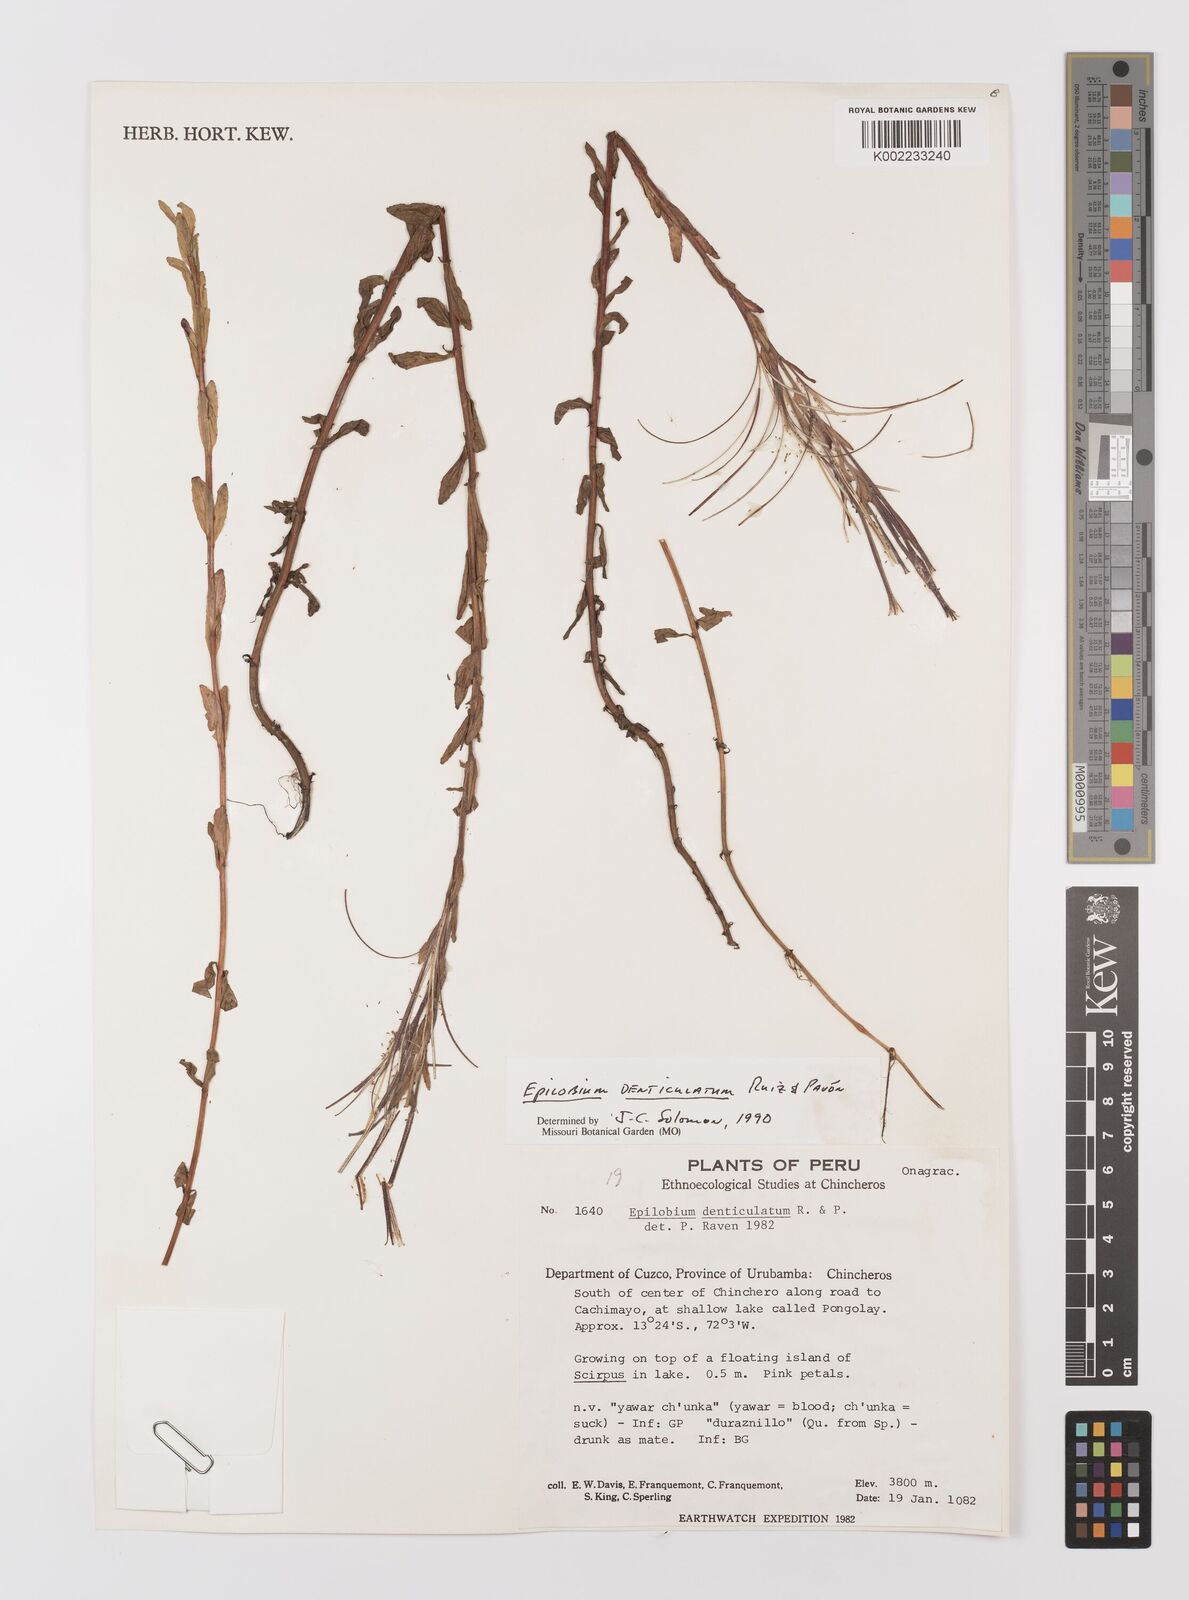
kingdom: Plantae
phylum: Tracheophyta
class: Magnoliopsida
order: Myrtales
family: Onagraceae
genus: Epilobium
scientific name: Epilobium denticulatum
